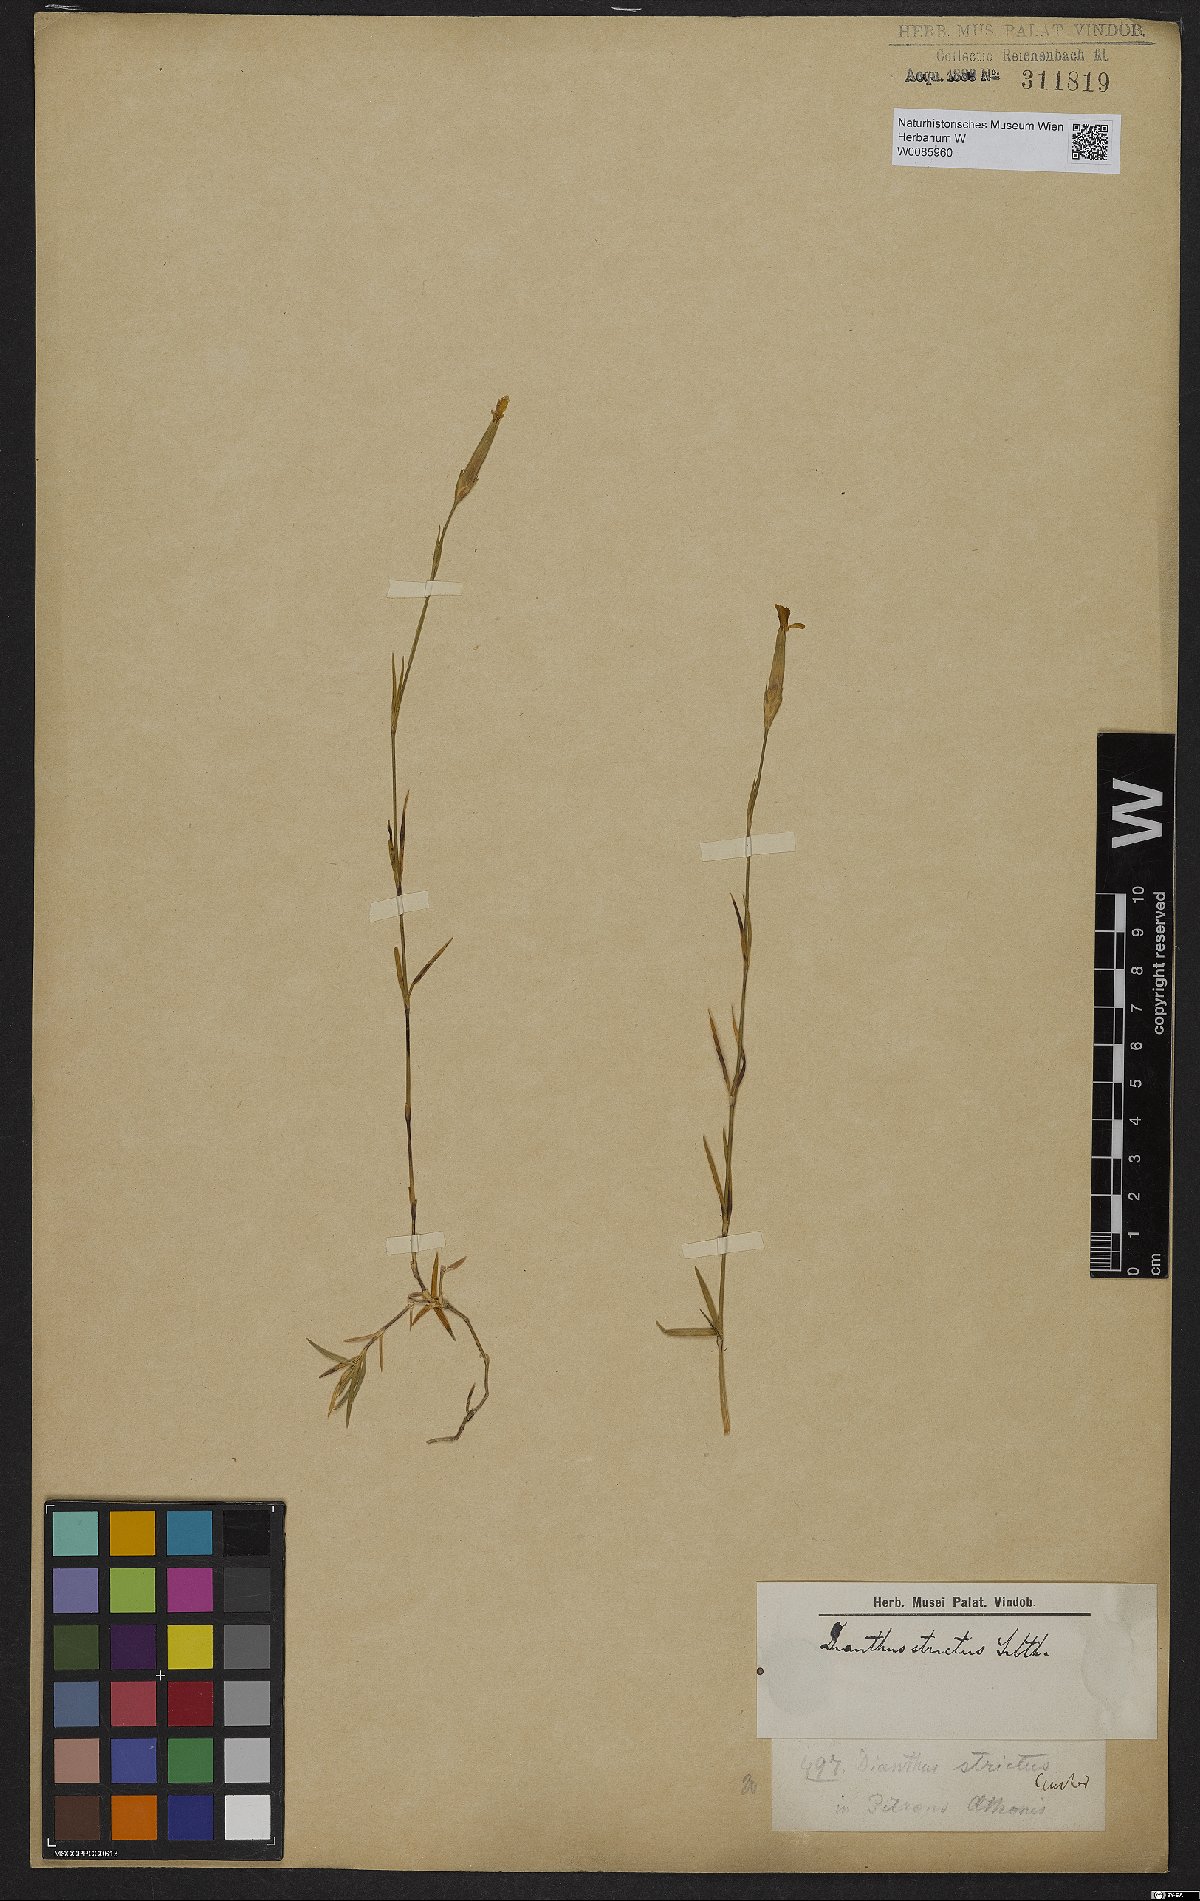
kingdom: Plantae
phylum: Tracheophyta
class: Magnoliopsida
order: Caryophyllales
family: Caryophyllaceae
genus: Dianthus
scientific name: Dianthus petraeus
